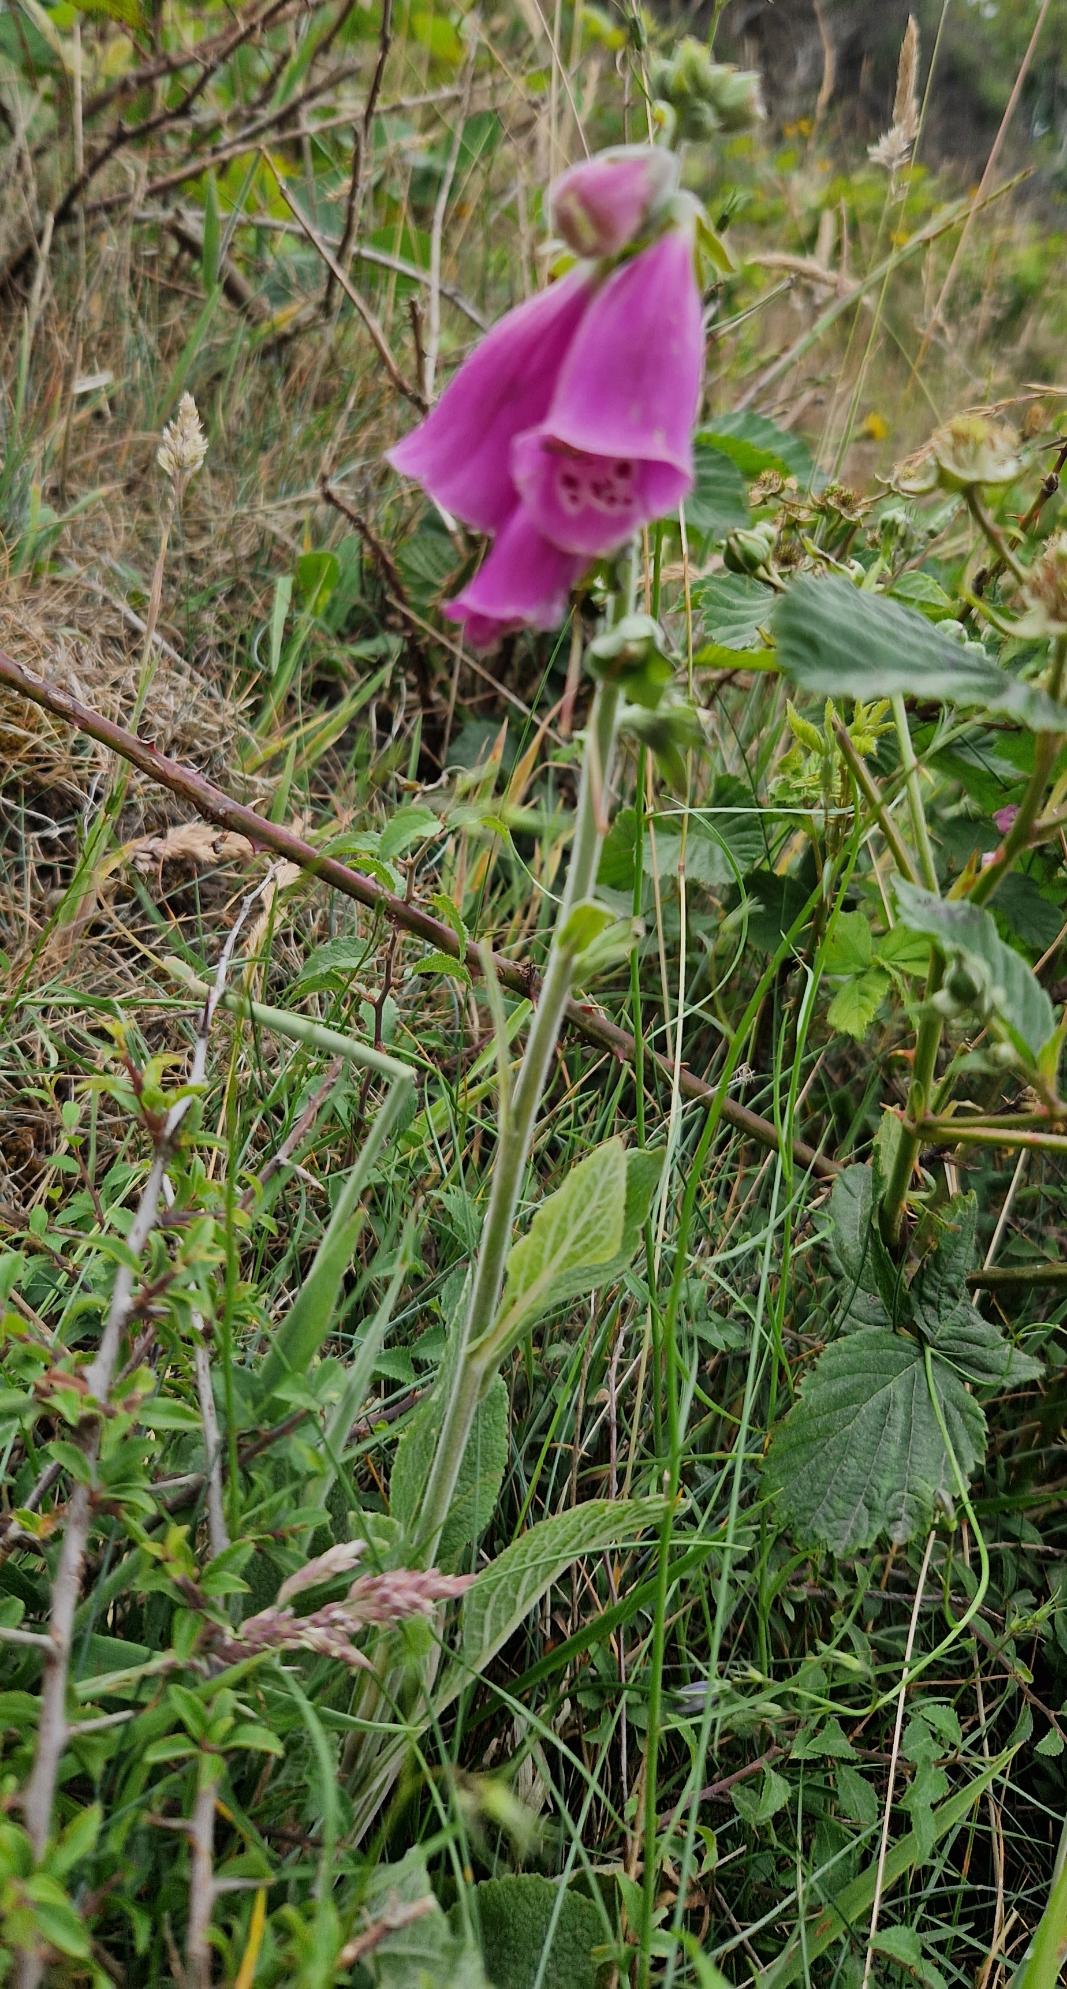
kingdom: Plantae
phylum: Tracheophyta
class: Magnoliopsida
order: Lamiales
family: Plantaginaceae
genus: Digitalis
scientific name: Digitalis purpurea
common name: Almindelig fingerbøl
